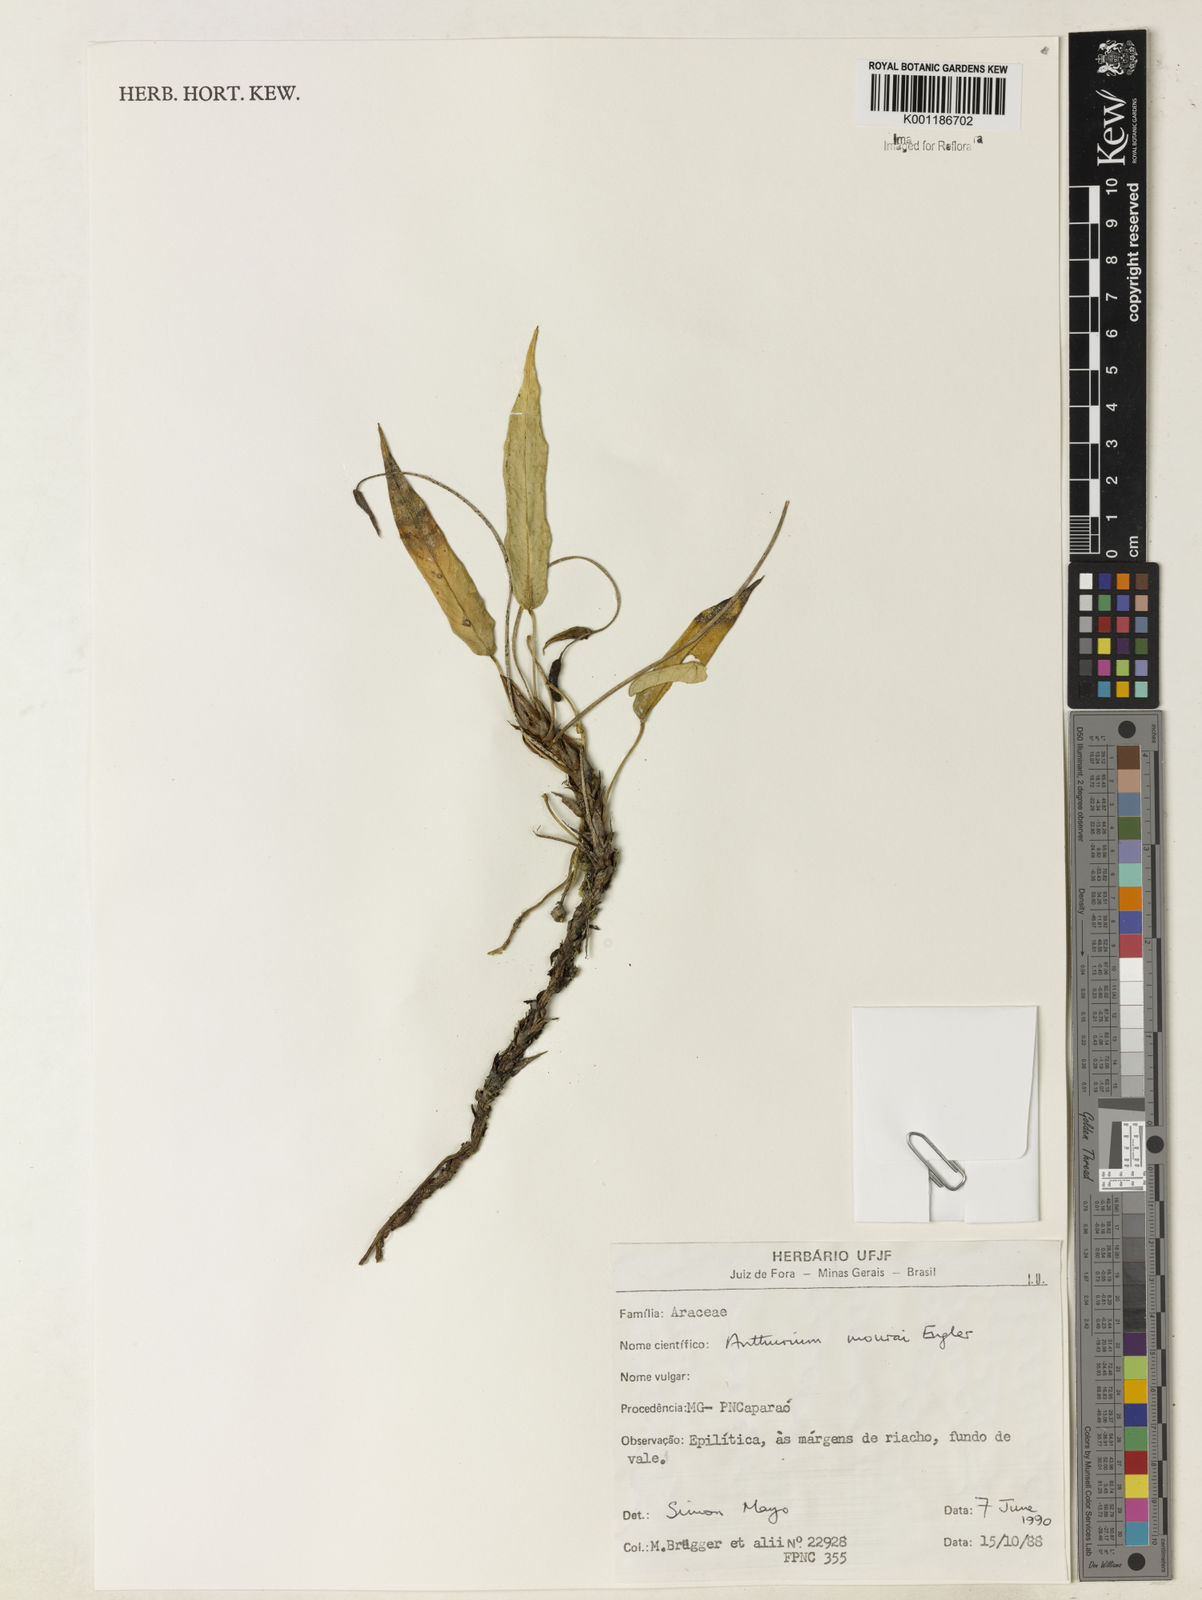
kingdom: Plantae
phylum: Tracheophyta
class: Liliopsida
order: Alismatales
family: Araceae
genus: Anthurium
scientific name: Anthurium mourae
